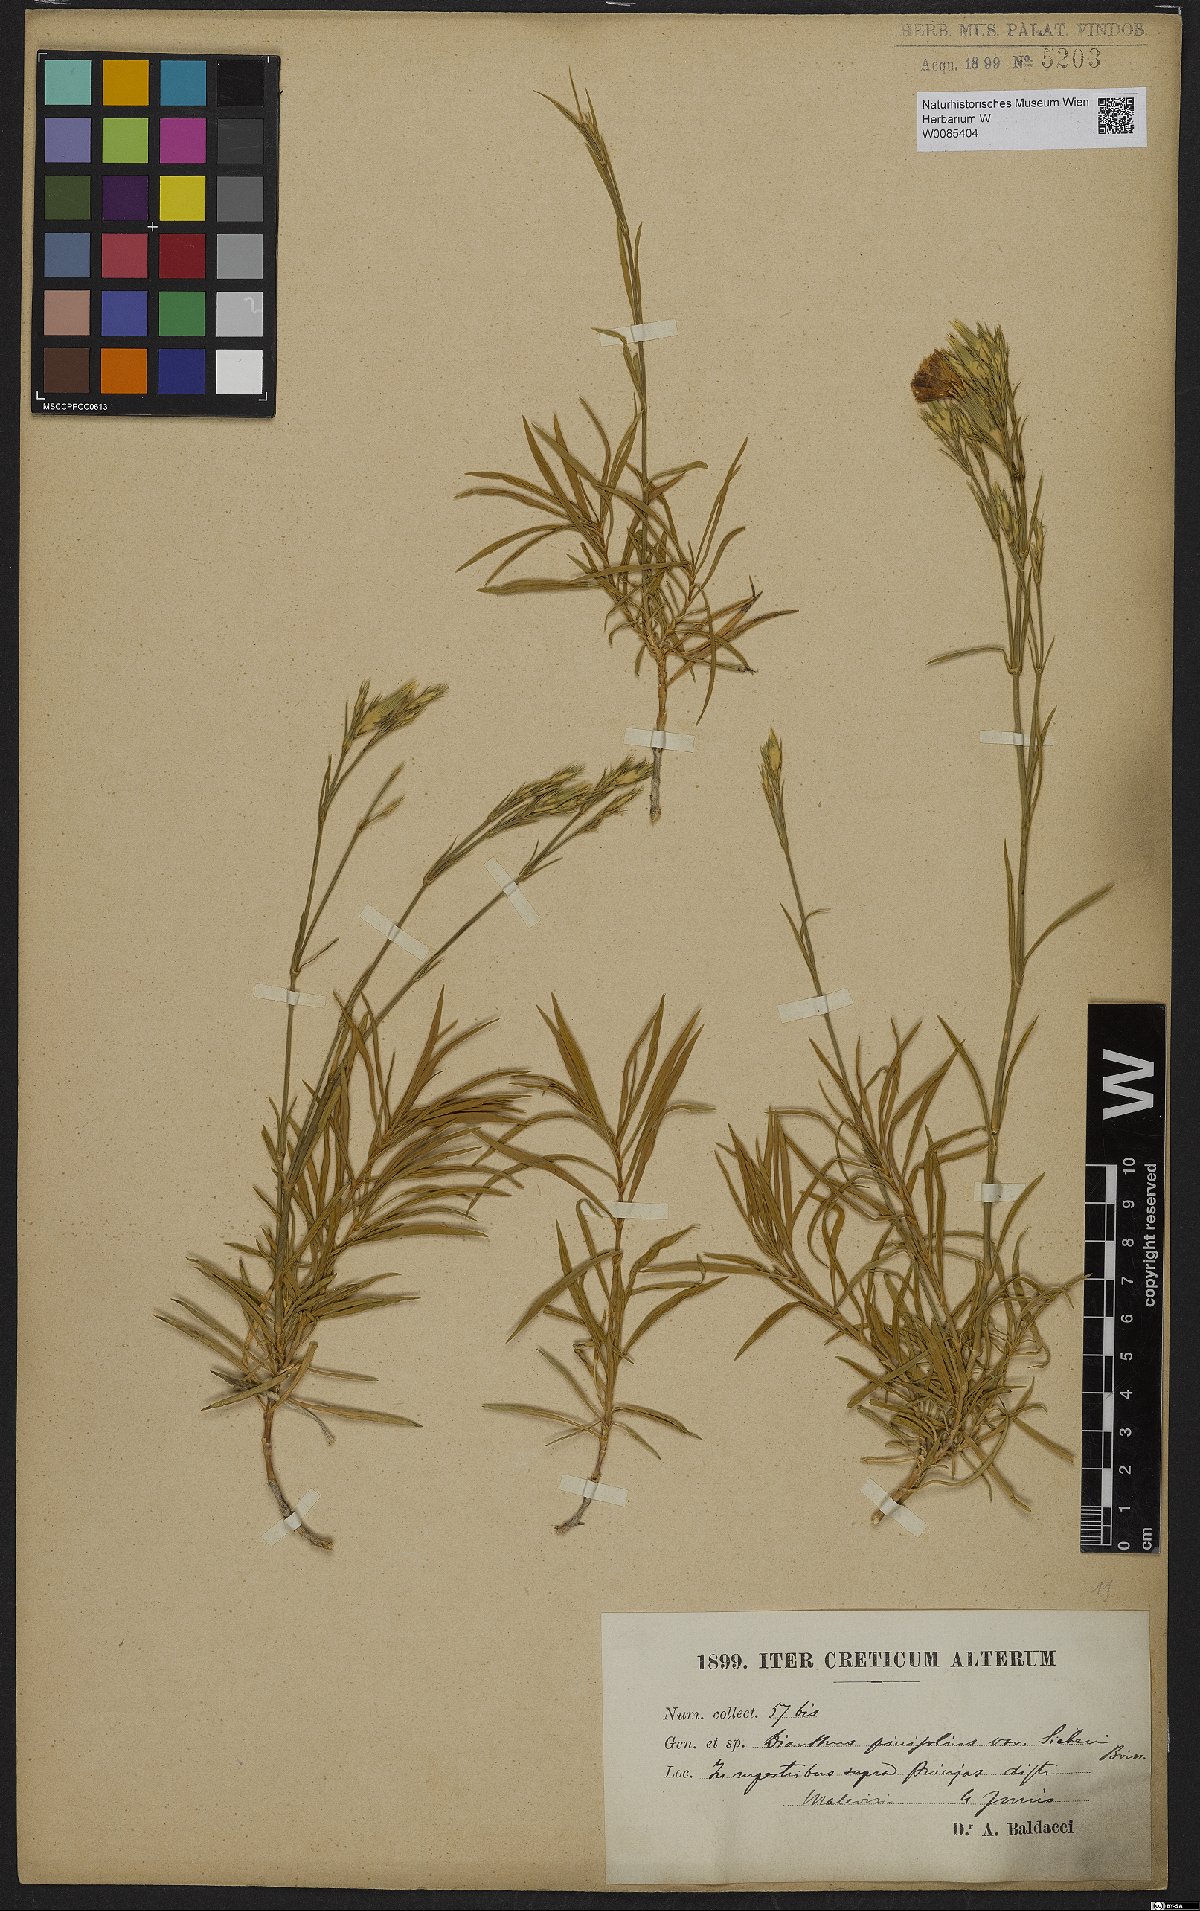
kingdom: Plantae
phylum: Tracheophyta
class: Magnoliopsida
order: Caryophyllales
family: Caryophyllaceae
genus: Dianthus
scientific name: Dianthus pinifolius
